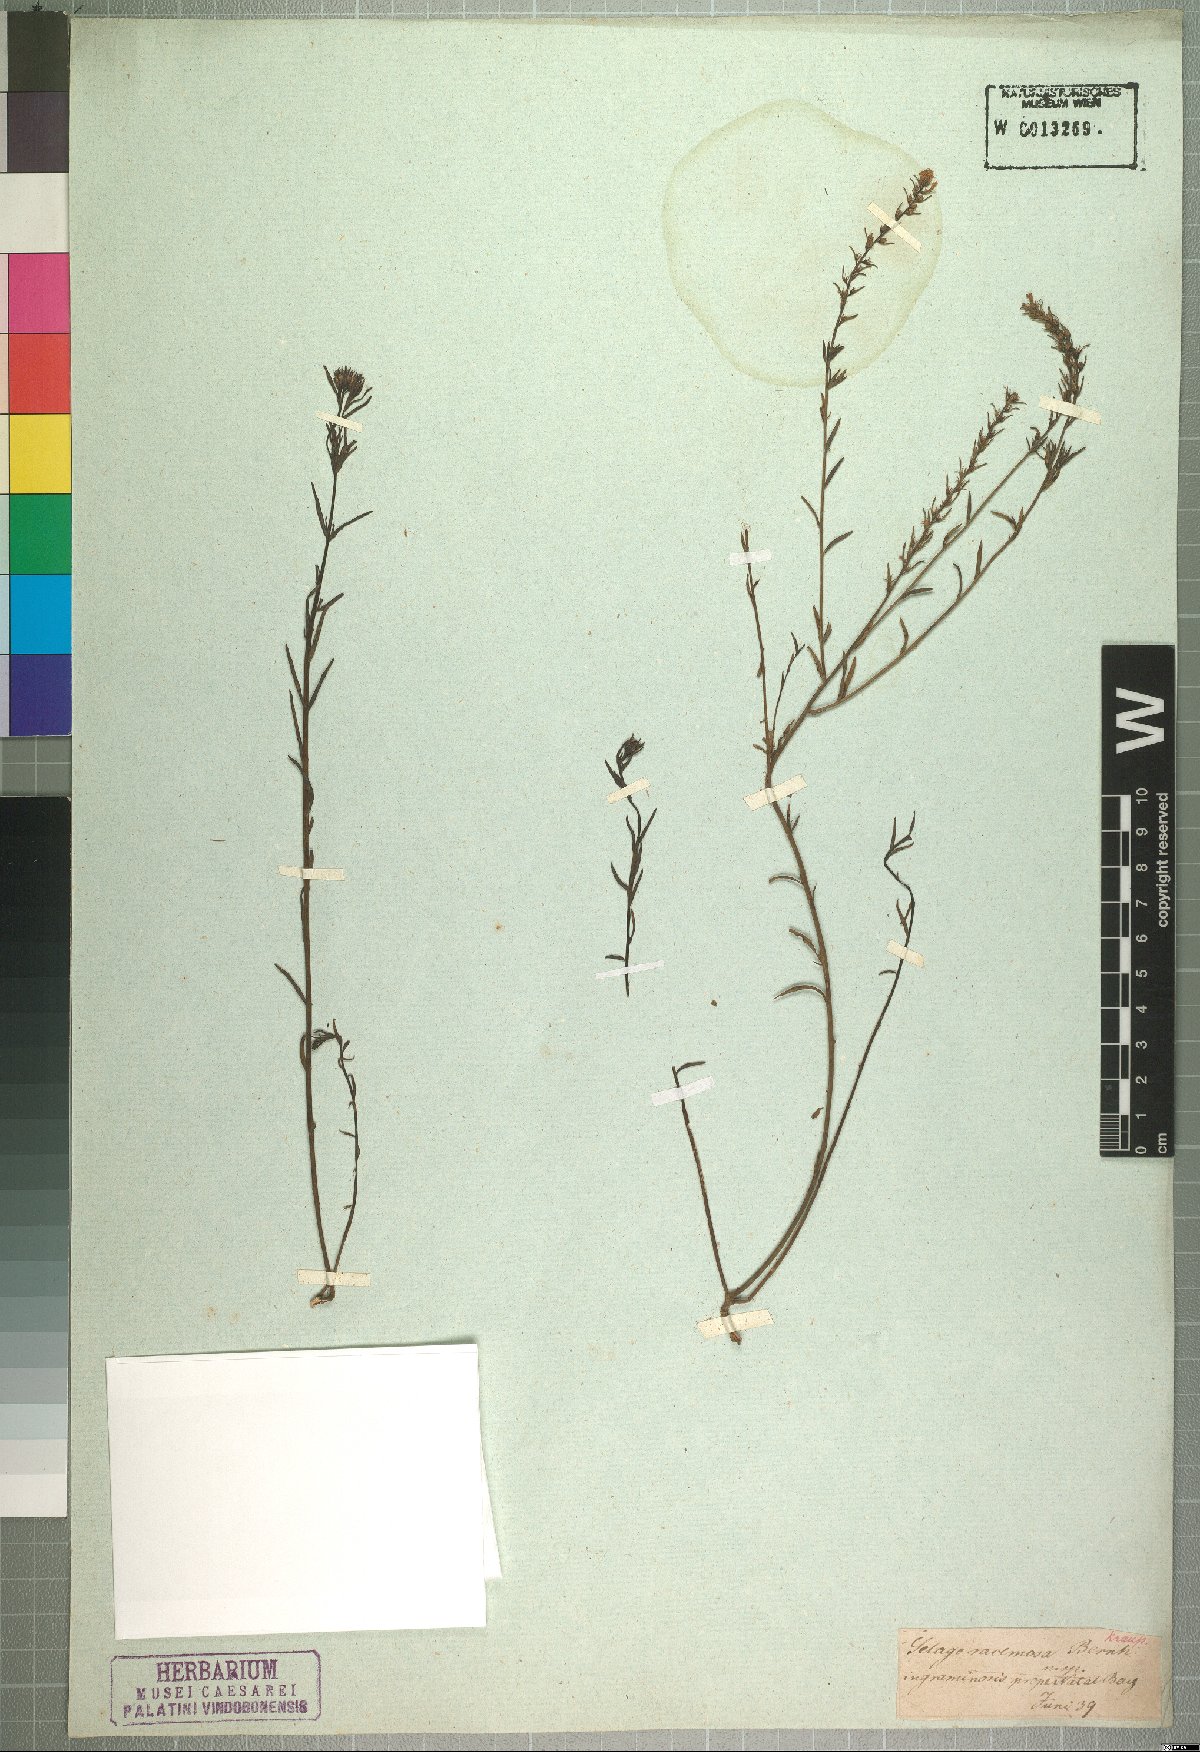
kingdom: Plantae
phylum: Tracheophyta
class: Magnoliopsida
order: Lamiales
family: Scrophulariaceae
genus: Selago
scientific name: Selago trinervia
